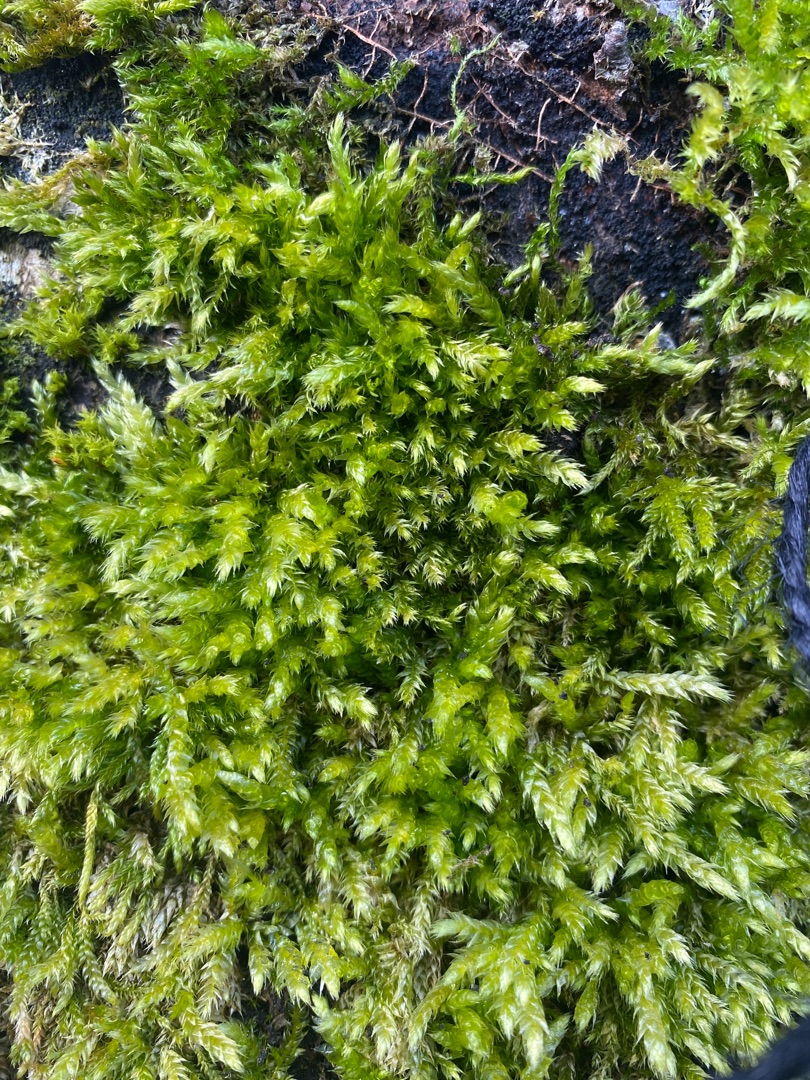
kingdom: Plantae
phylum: Bryophyta
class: Bryopsida
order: Hypnales
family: Brachytheciaceae
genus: Brachythecium
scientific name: Brachythecium rutabulum
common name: Almindelig kortkapsel
